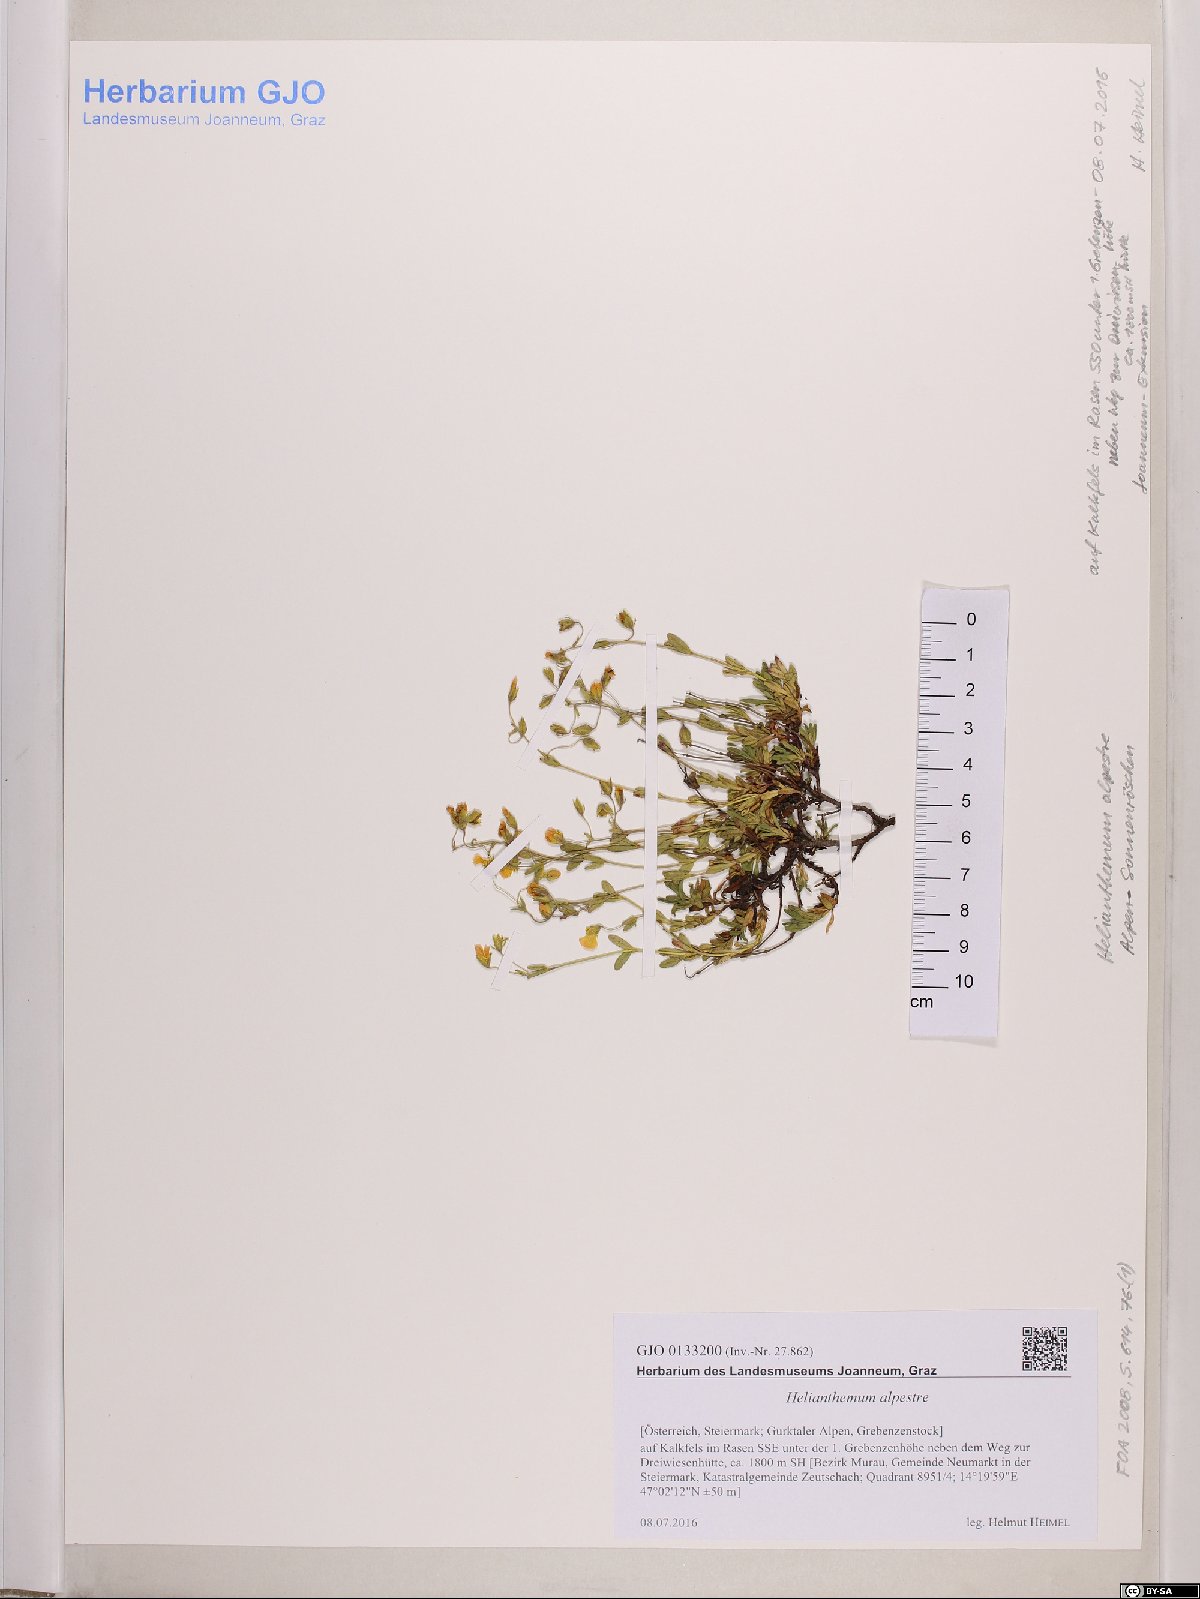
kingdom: Plantae
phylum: Tracheophyta
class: Magnoliopsida
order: Malvales
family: Cistaceae
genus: Helianthemum
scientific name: Helianthemum alpestre
